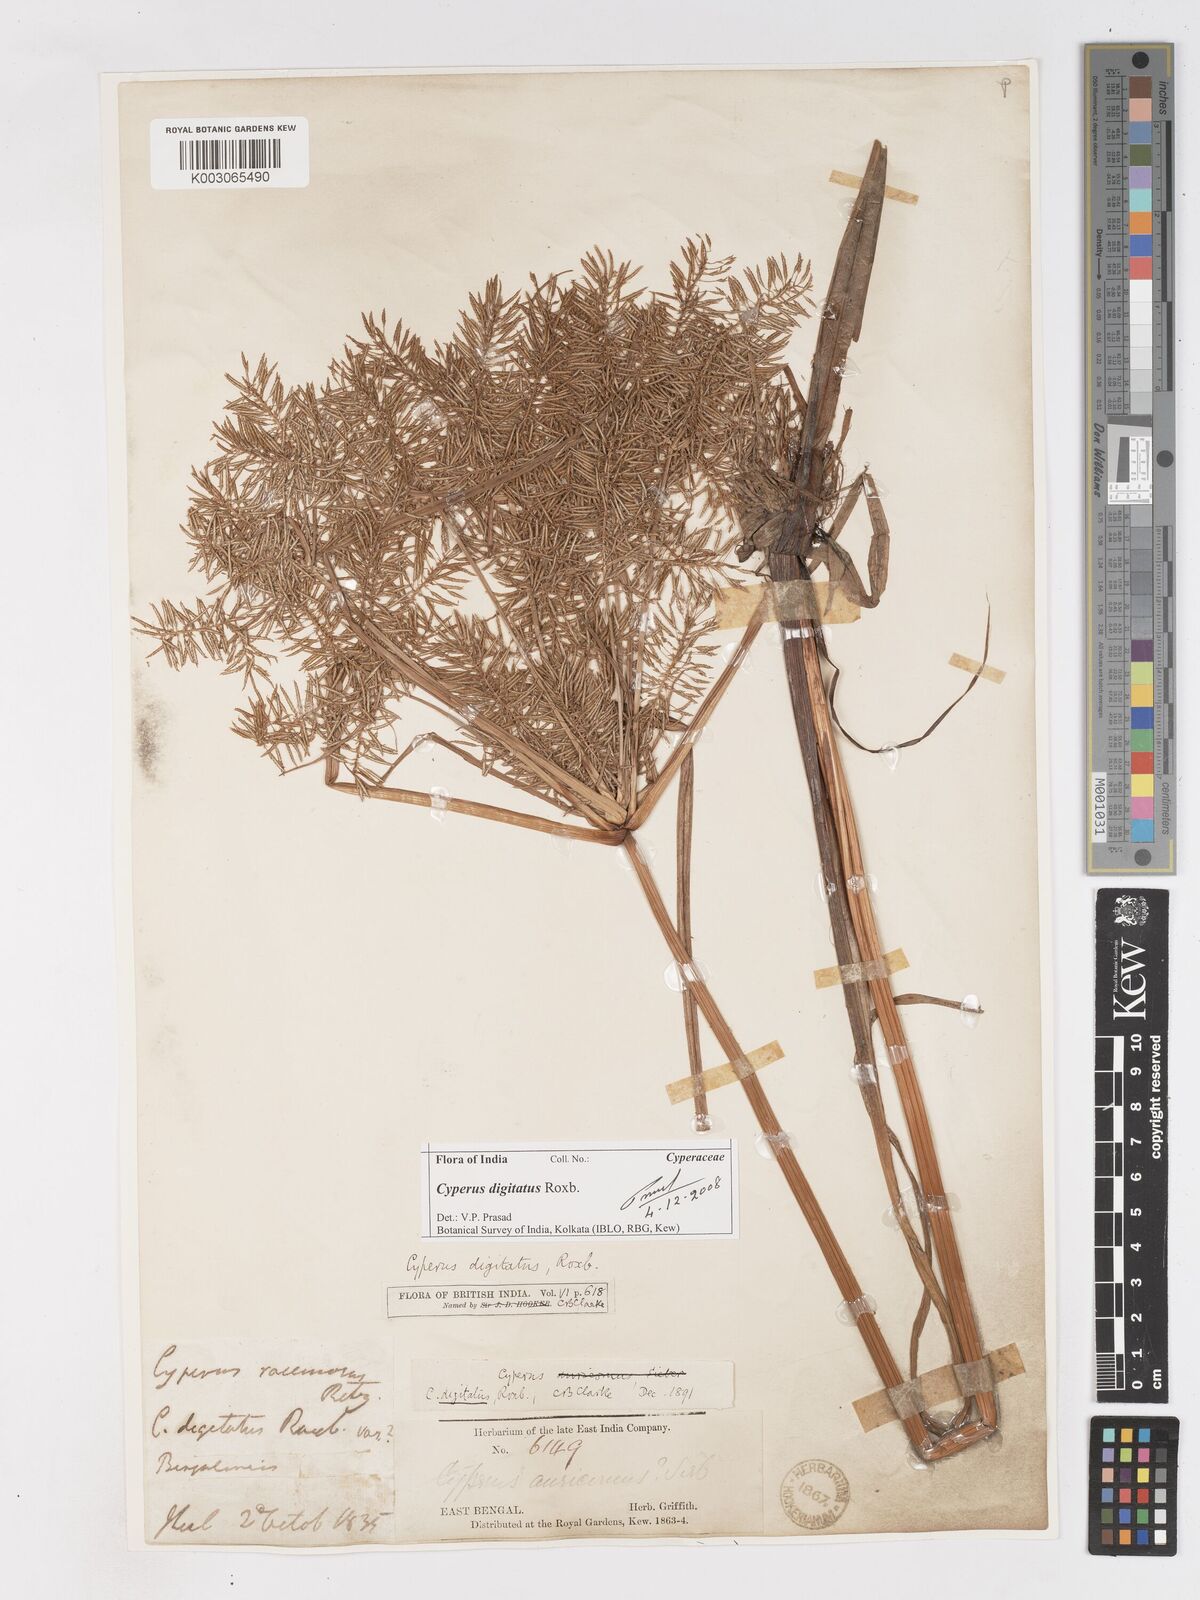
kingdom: Plantae
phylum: Tracheophyta
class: Liliopsida
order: Poales
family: Cyperaceae
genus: Cyperus
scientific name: Cyperus digitatus
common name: Finger flatsedge
